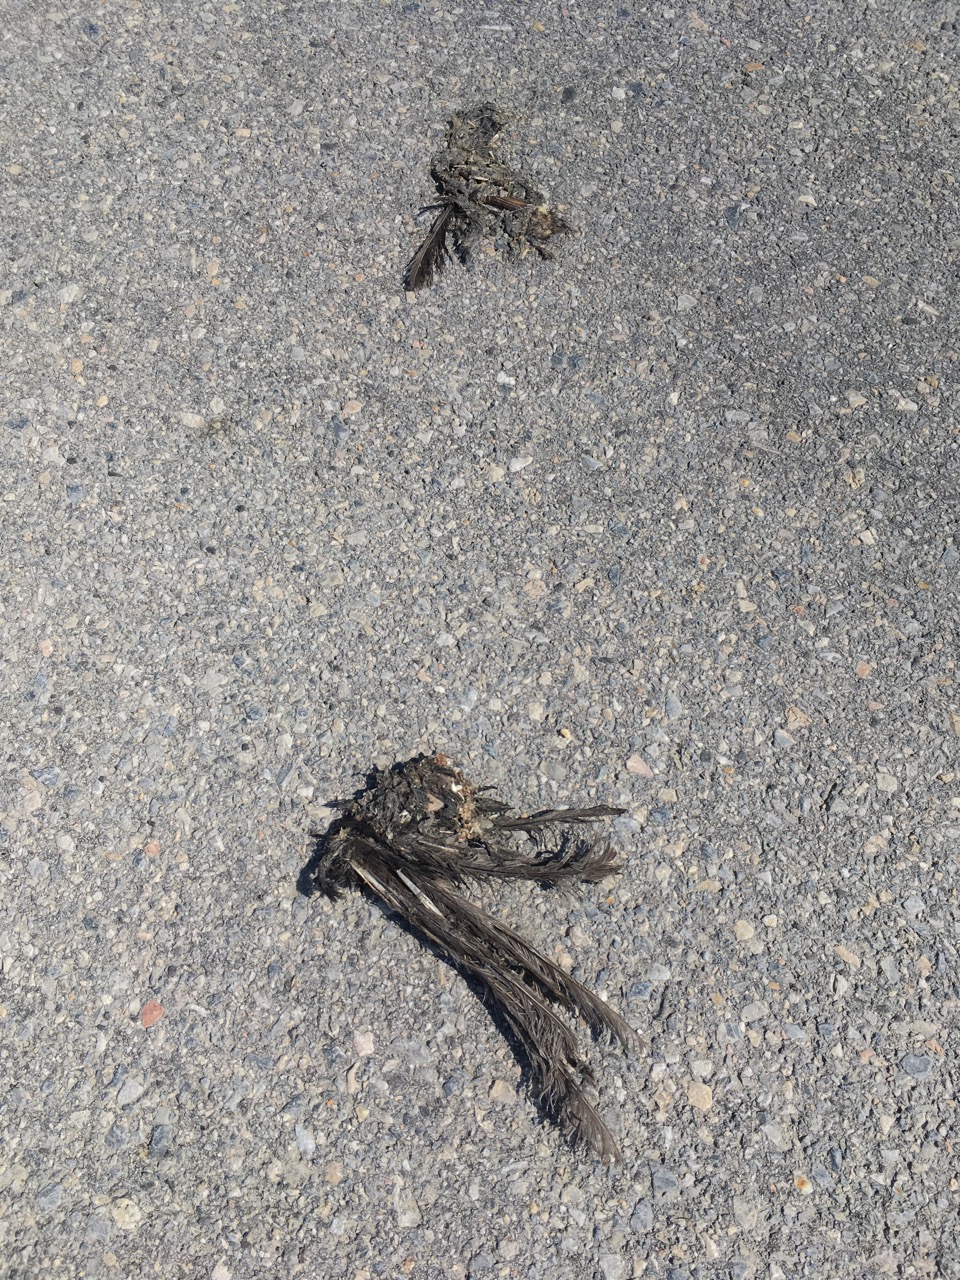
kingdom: Animalia
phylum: Chordata
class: Aves
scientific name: Aves
